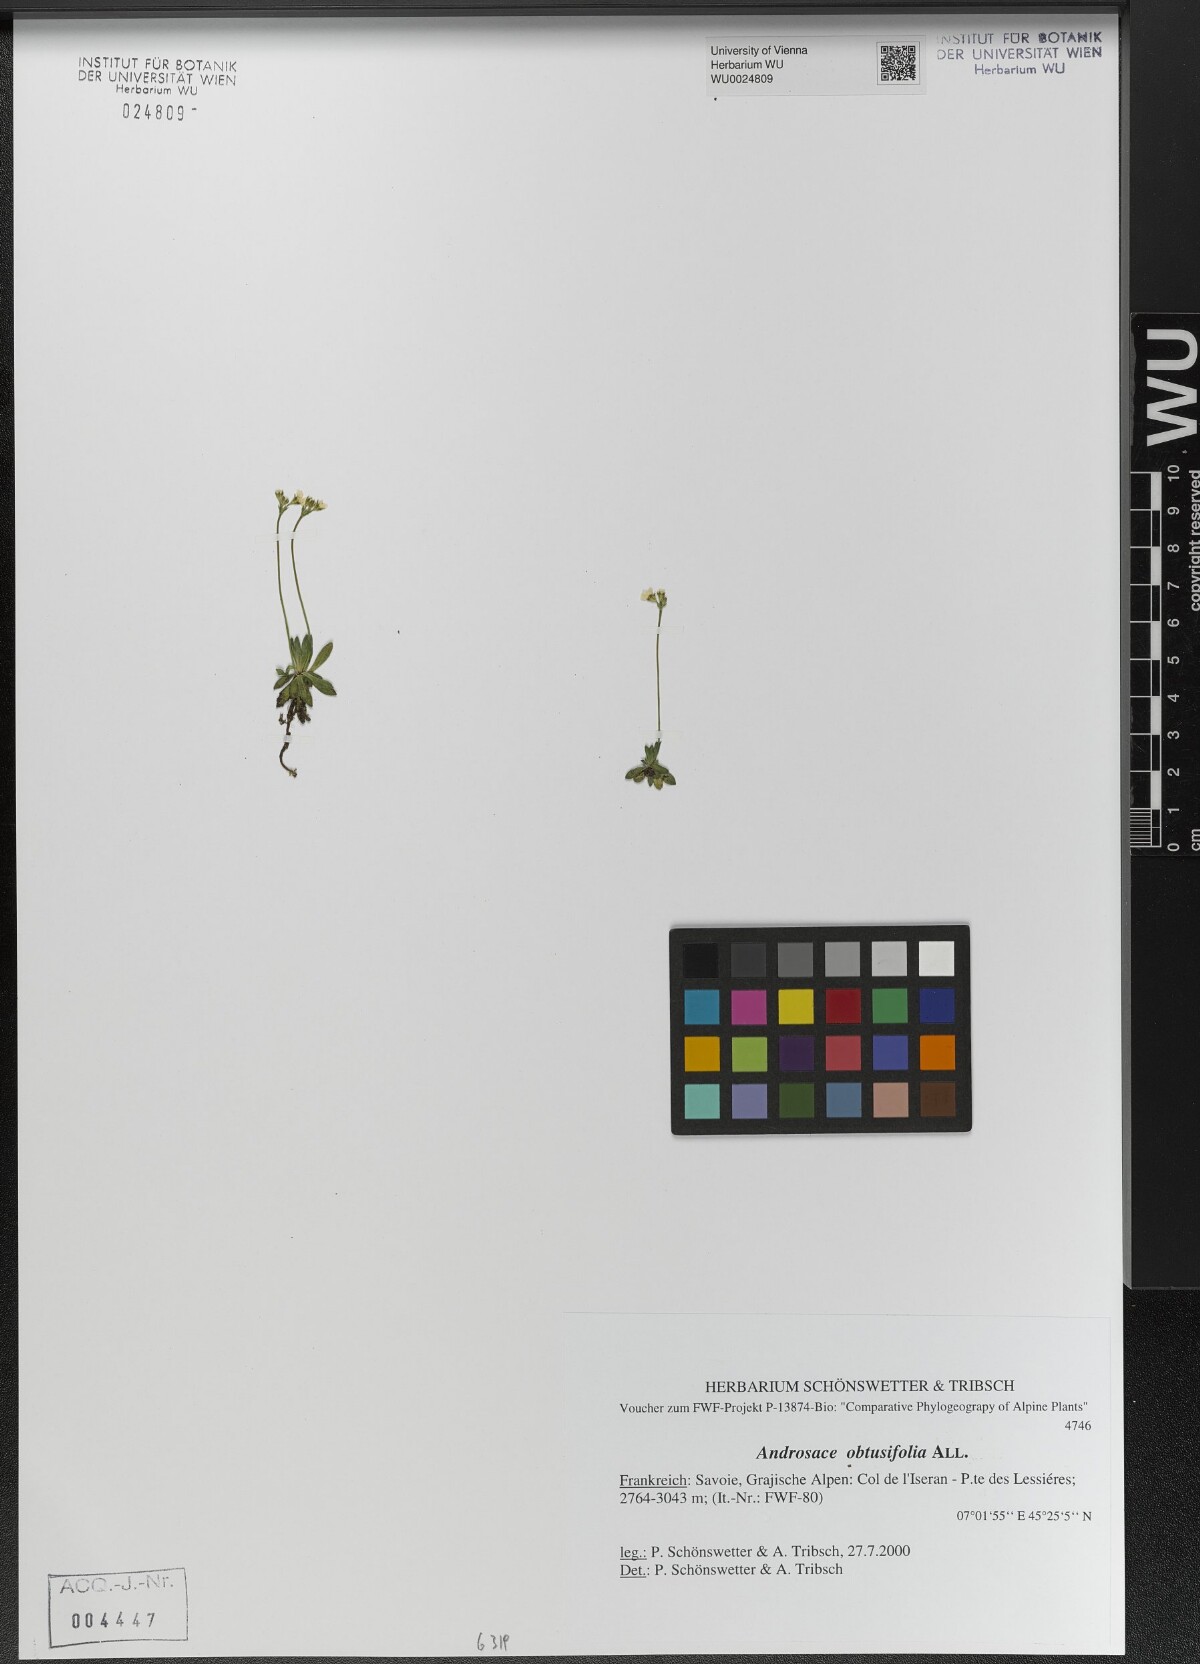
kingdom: Plantae
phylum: Tracheophyta
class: Magnoliopsida
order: Ericales
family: Primulaceae
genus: Androsace
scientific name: Androsace obtusifolia
